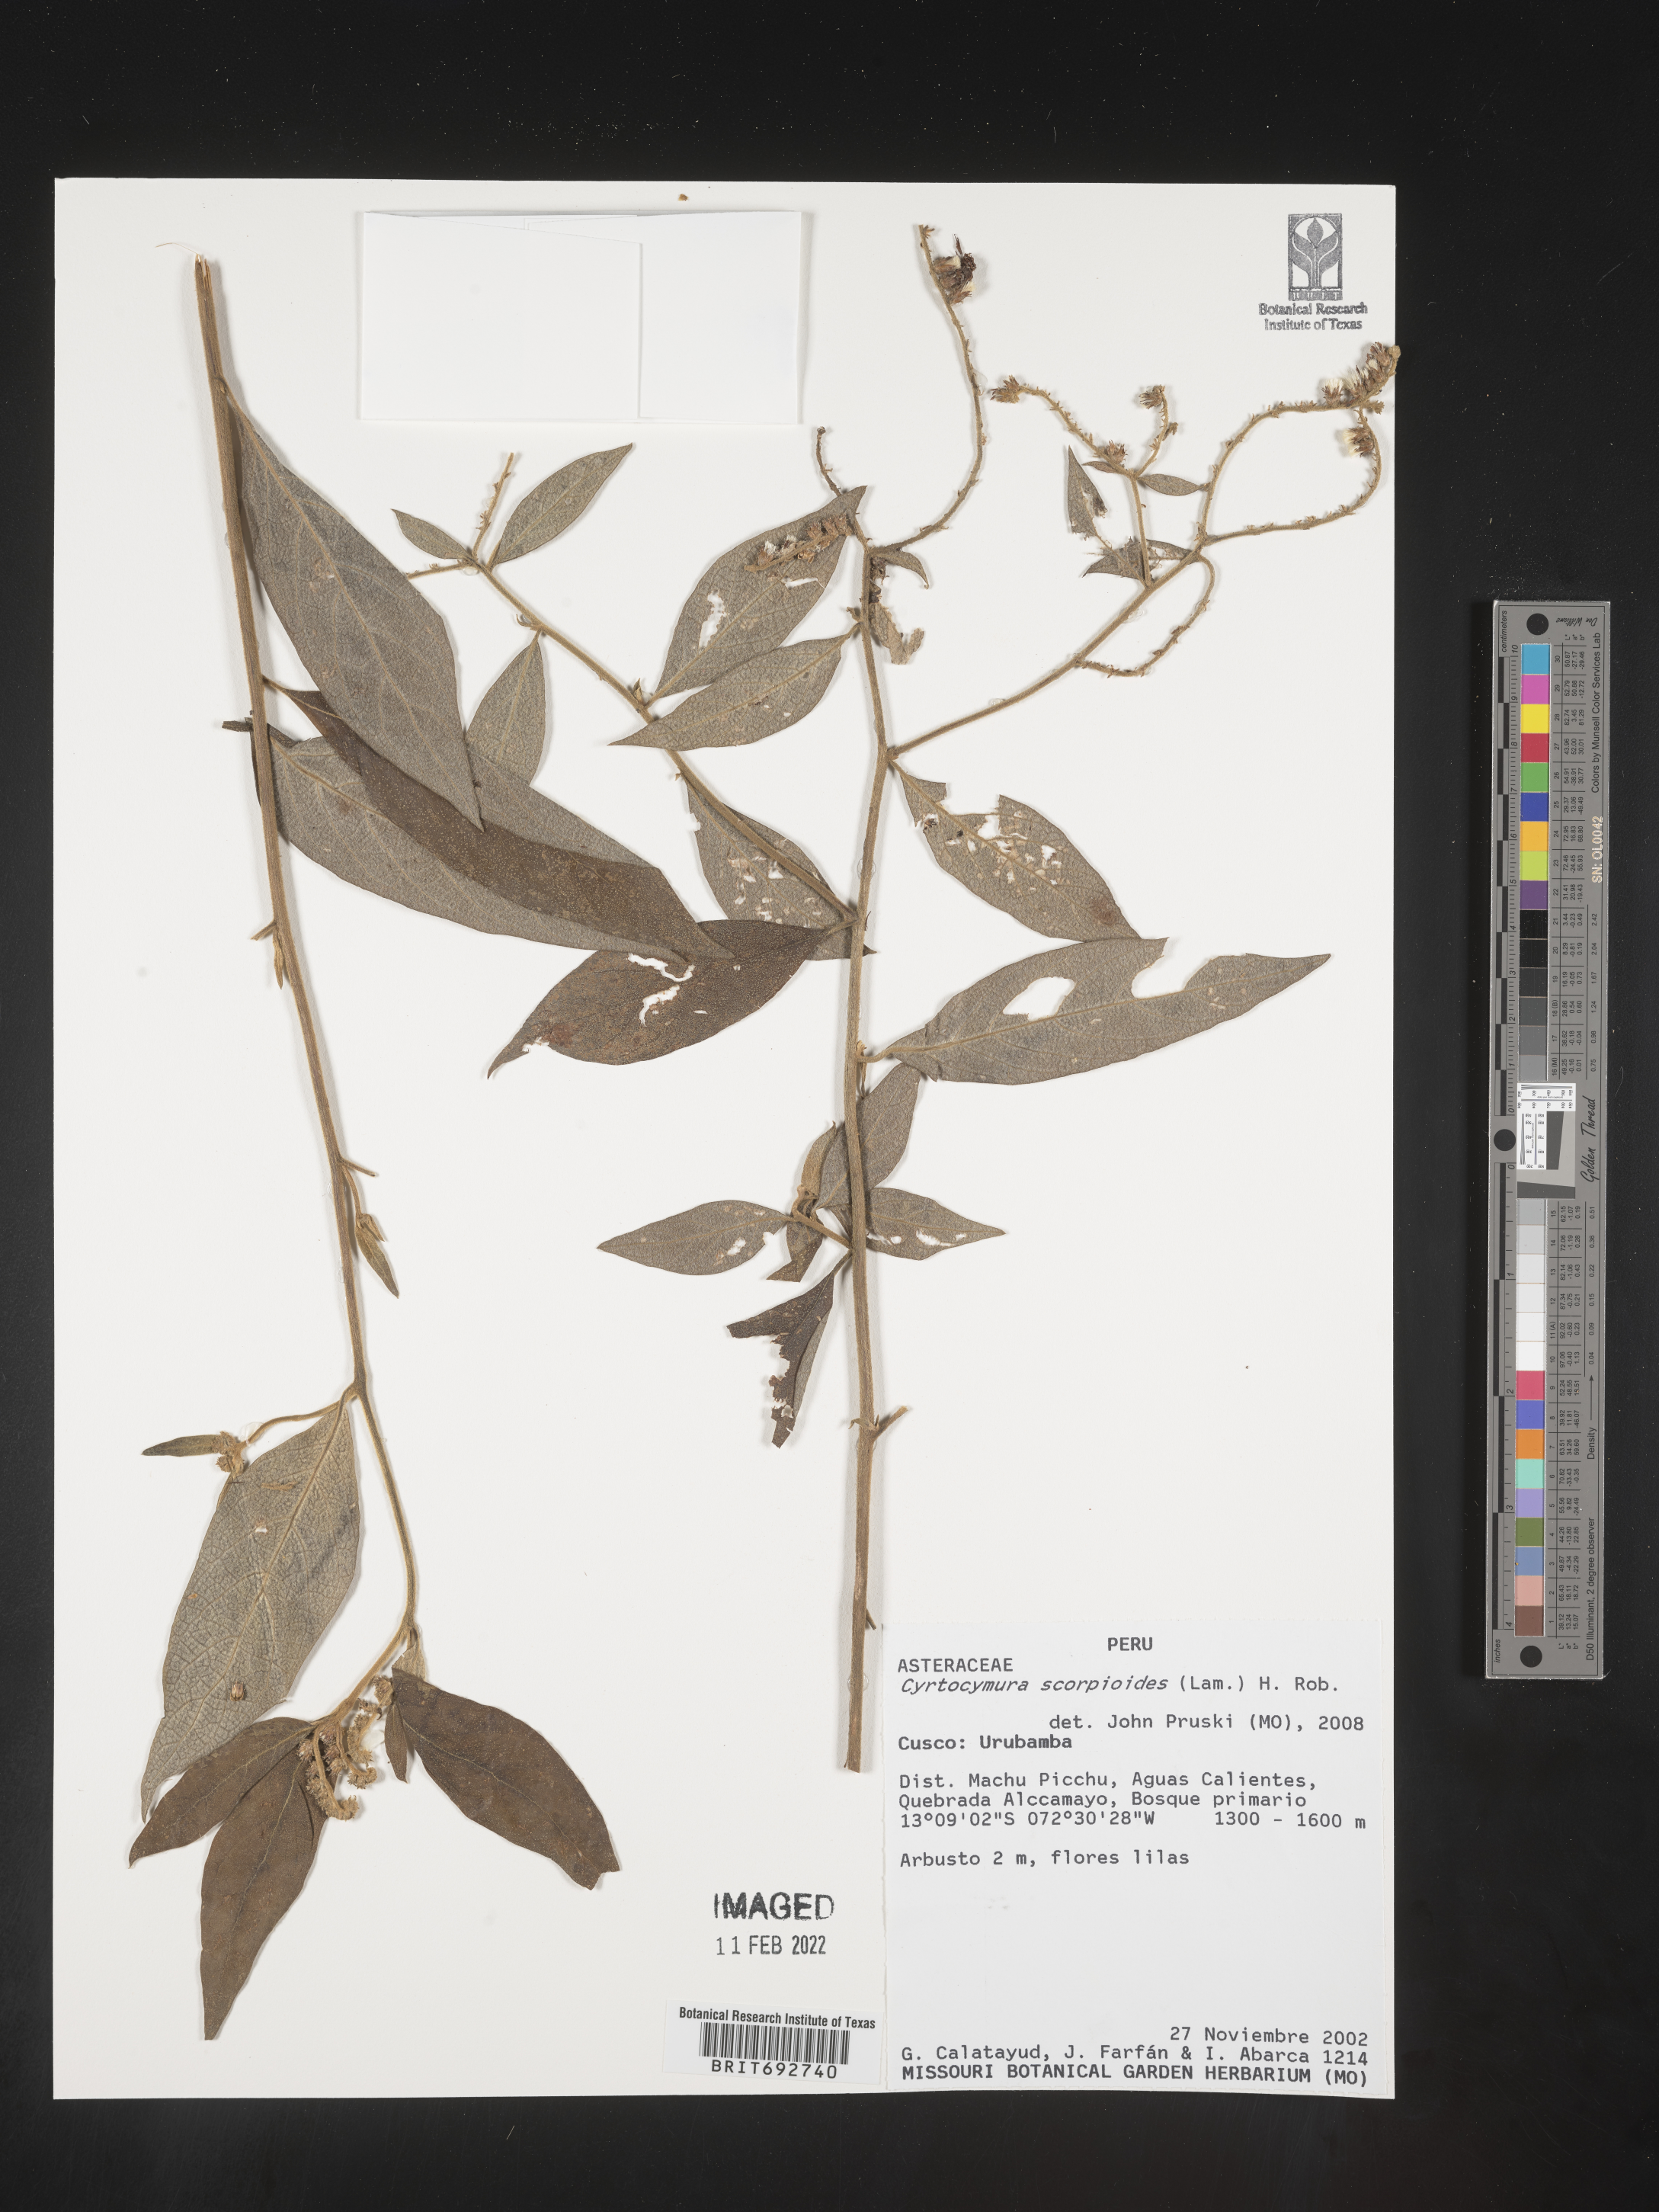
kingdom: Plantae
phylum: Tracheophyta
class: Magnoliopsida
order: Asterales
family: Asteraceae
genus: Cyrtocymura
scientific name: Cyrtocymura
